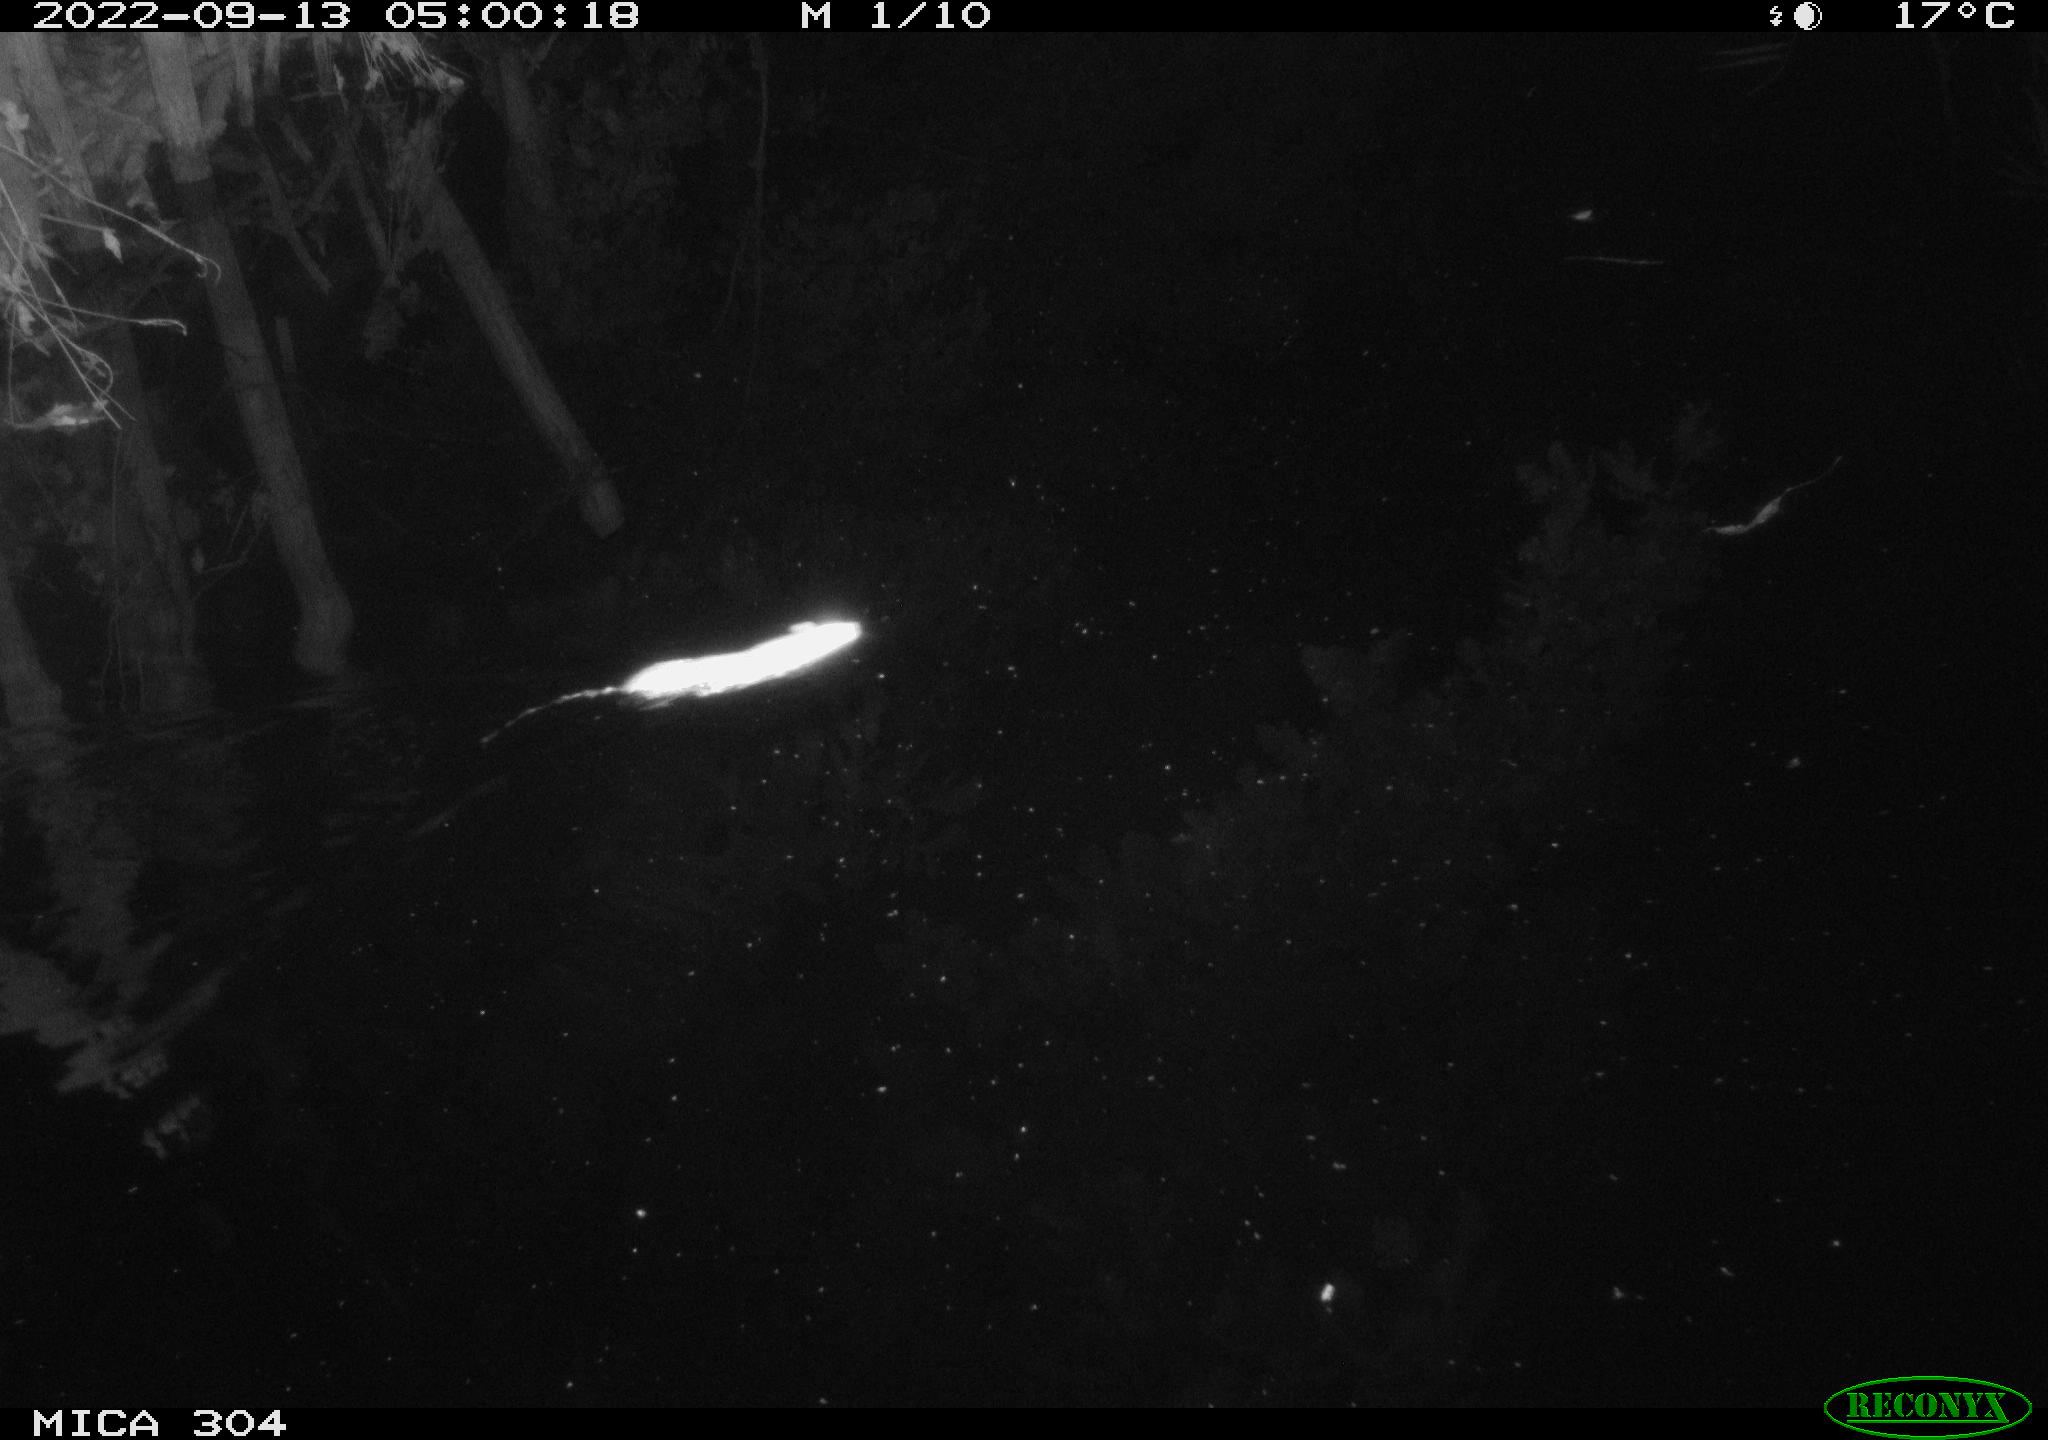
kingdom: Animalia
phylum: Chordata
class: Mammalia
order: Rodentia
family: Muridae
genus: Rattus
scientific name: Rattus norvegicus
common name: Brown rat
